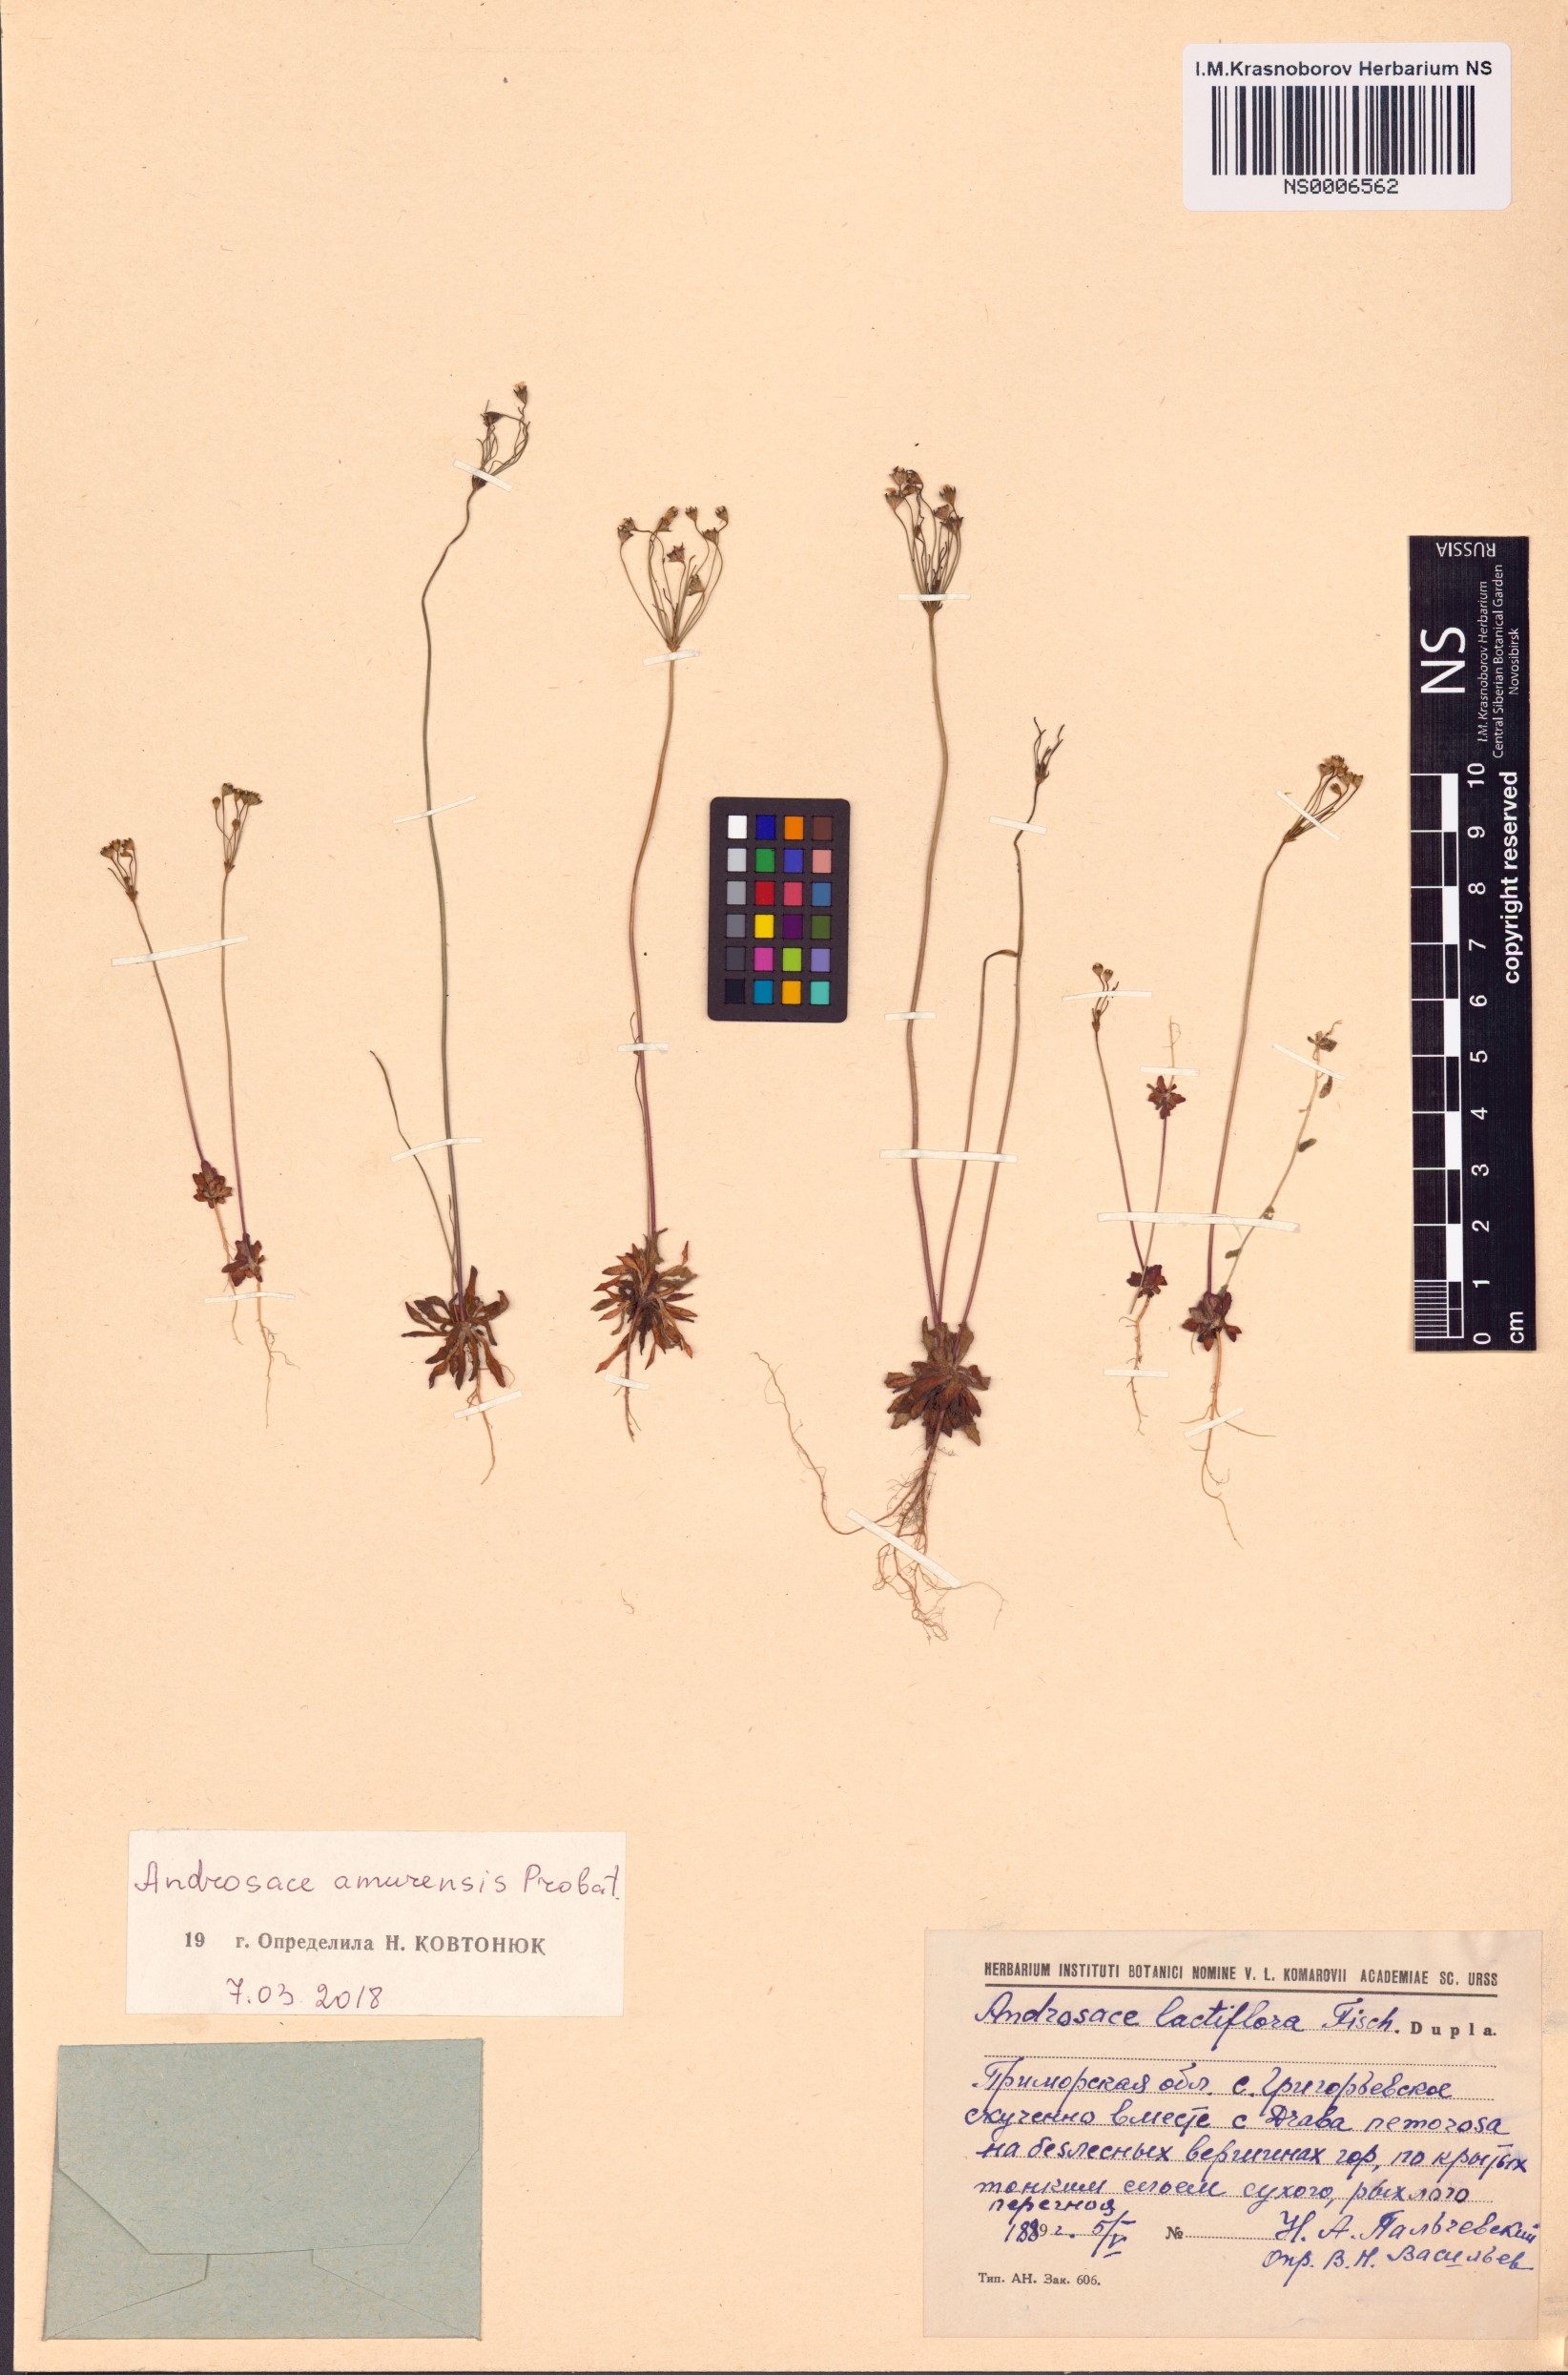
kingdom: Plantae
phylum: Tracheophyta
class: Magnoliopsida
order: Ericales
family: Primulaceae
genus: Androsace
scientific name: Androsace lactiflora
